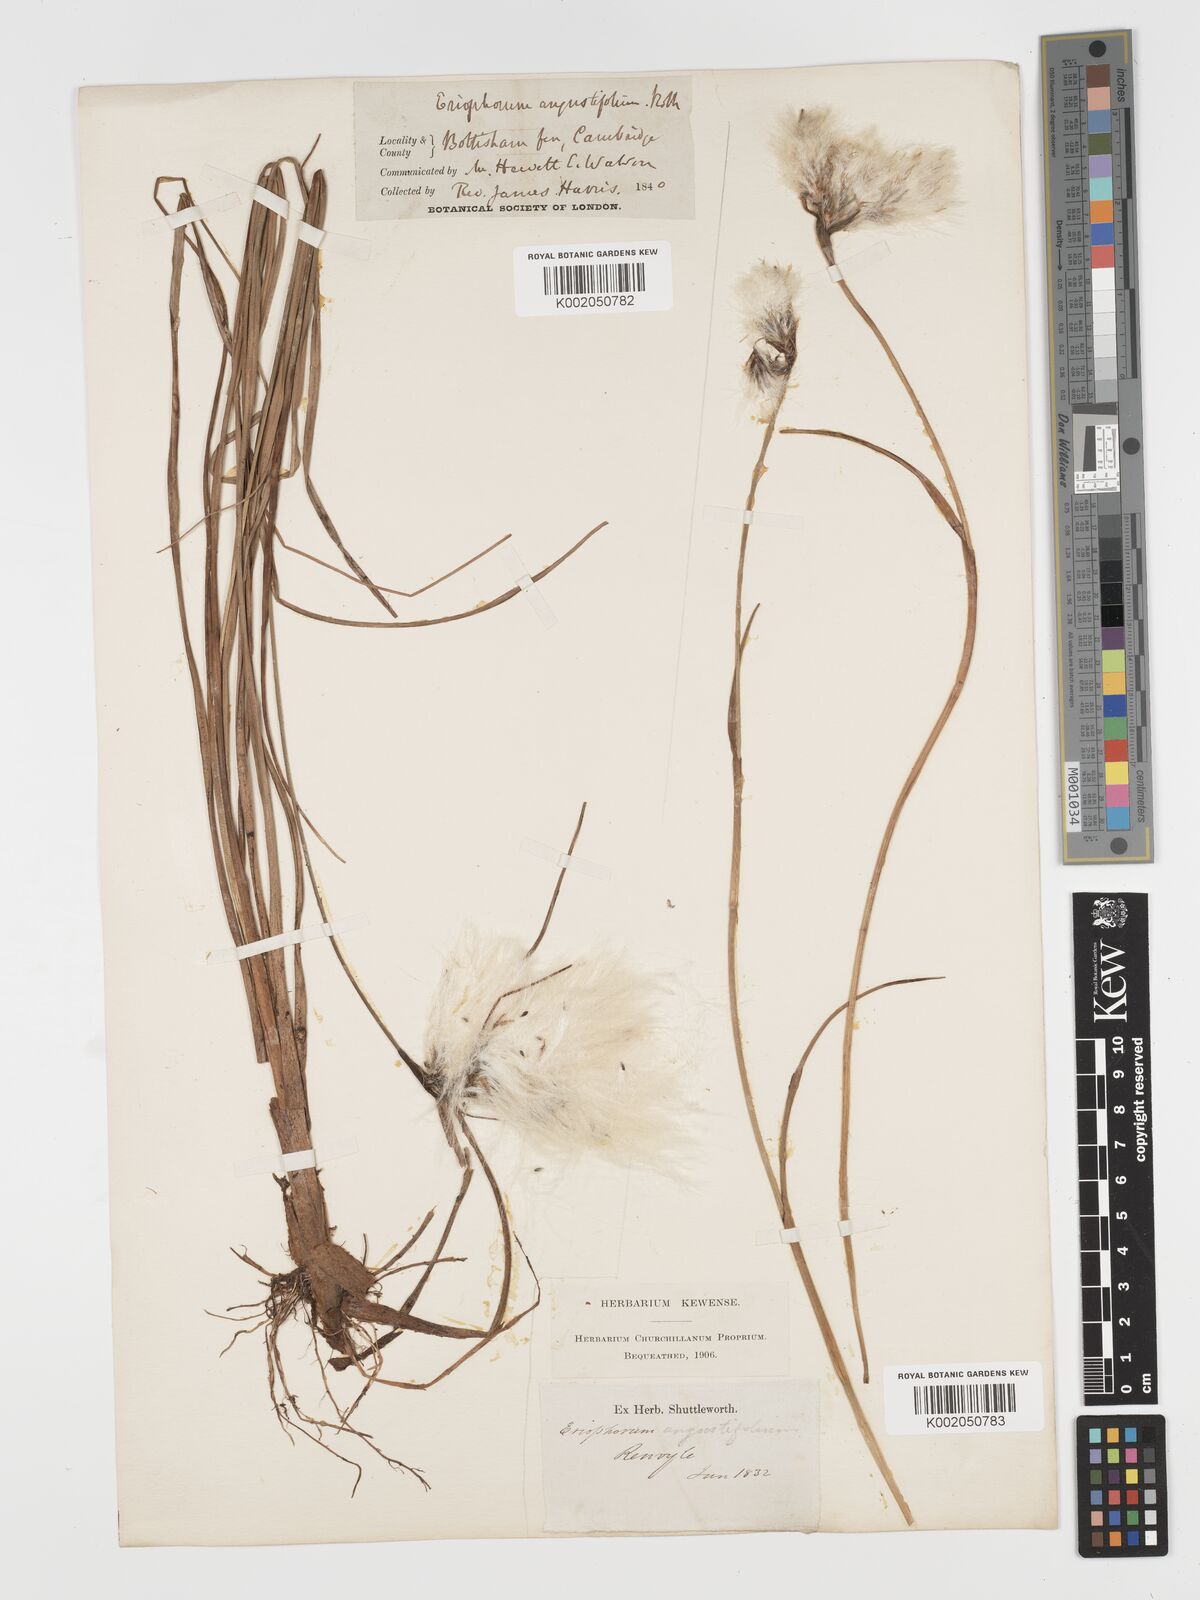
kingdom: Plantae
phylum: Tracheophyta
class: Liliopsida
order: Poales
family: Cyperaceae
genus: Eriophorum
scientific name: Eriophorum angustifolium
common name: Common cottongrass
